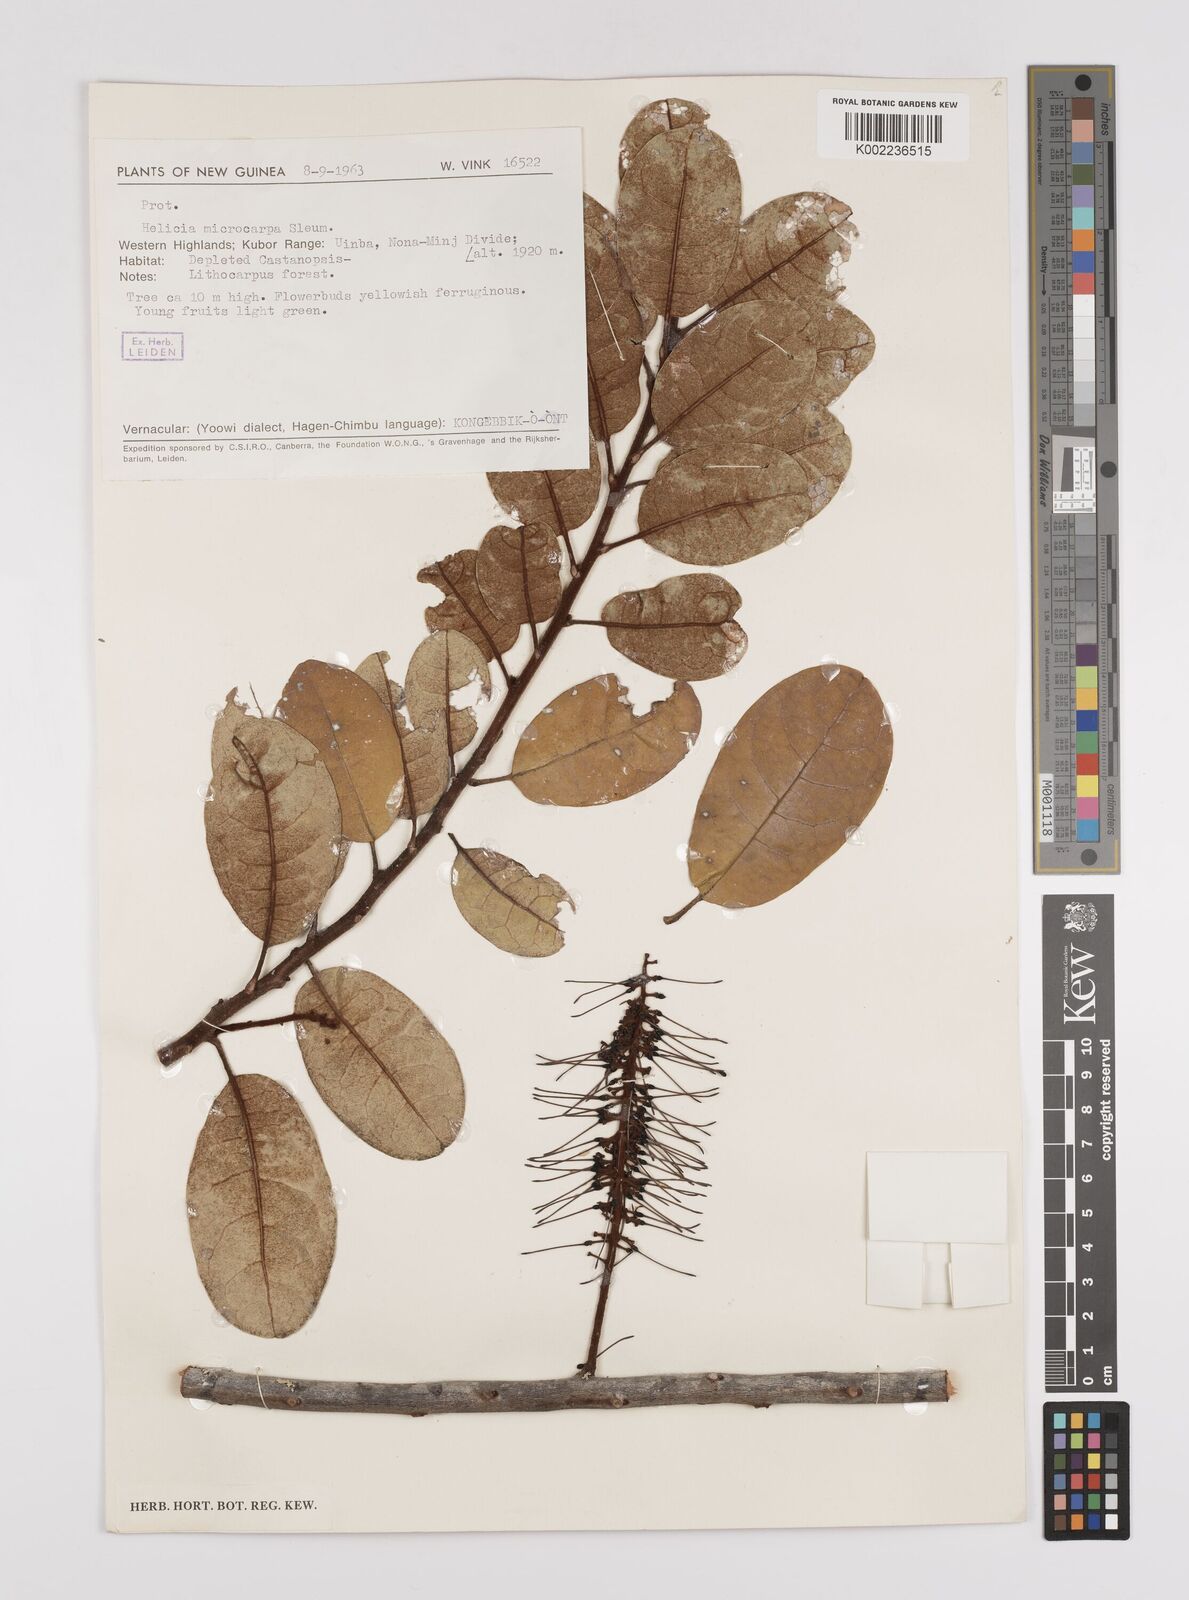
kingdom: Plantae
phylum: Tracheophyta
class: Magnoliopsida
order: Proteales
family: Proteaceae
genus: Helicia
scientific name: Helicia microphylla
